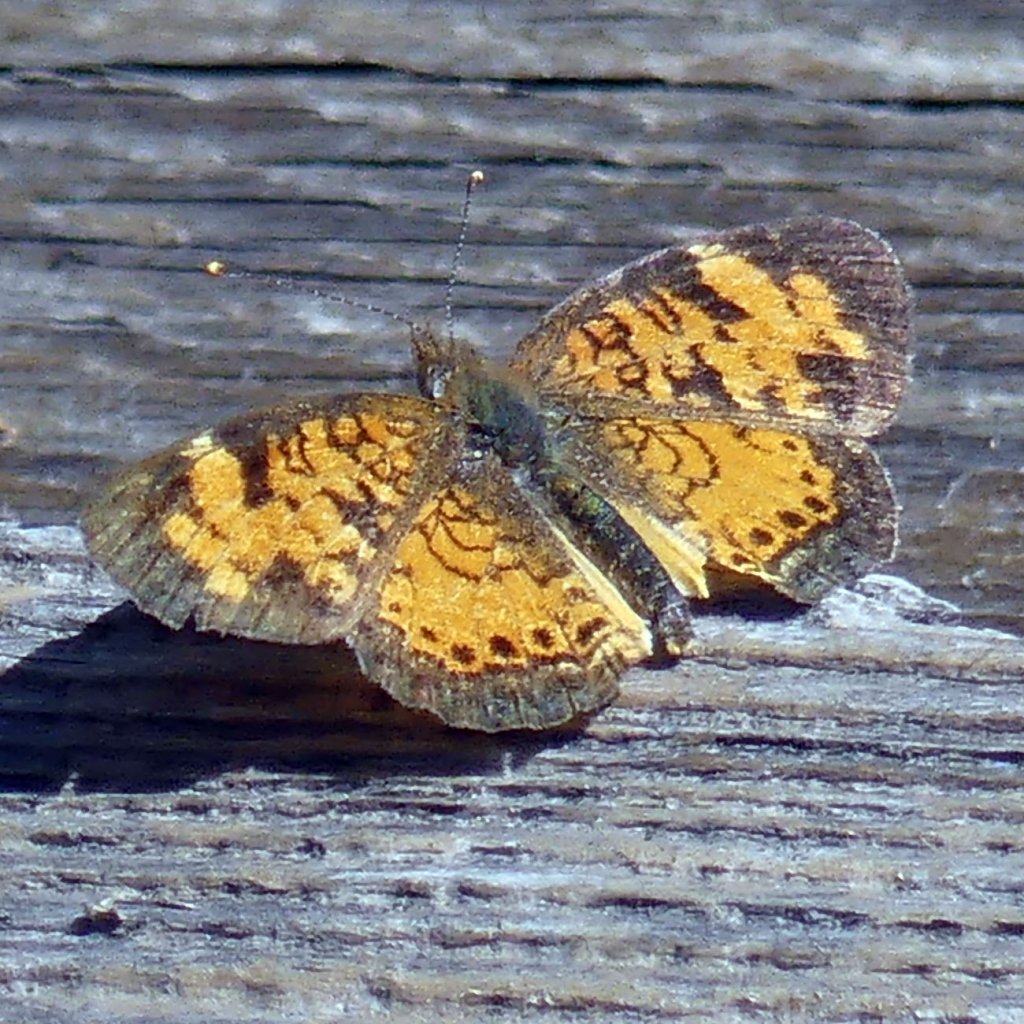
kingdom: Animalia
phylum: Arthropoda
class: Insecta
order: Lepidoptera
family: Nymphalidae
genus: Phyciodes
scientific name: Phyciodes tharos
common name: Northern Crescent
